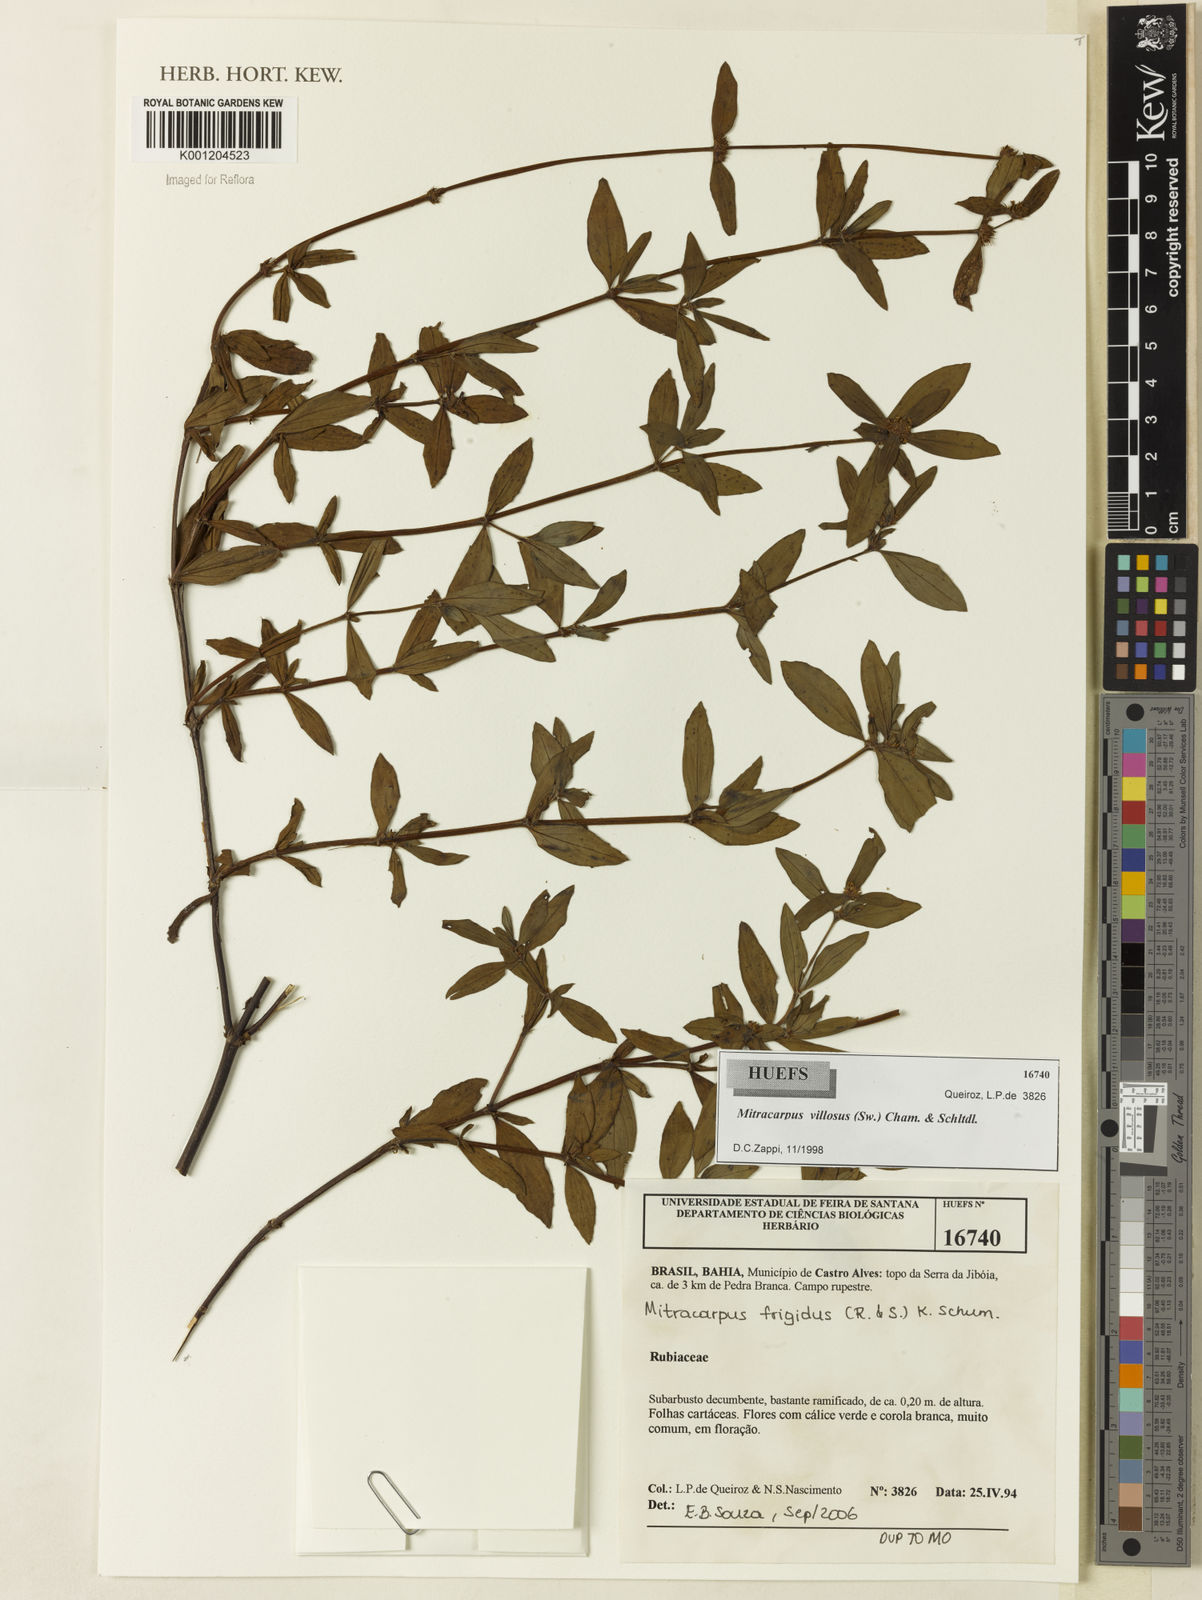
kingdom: Plantae
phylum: Tracheophyta
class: Magnoliopsida
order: Gentianales
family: Rubiaceae
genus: Mitracarpus
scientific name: Mitracarpus hirtus
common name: Tropical girdlepod
